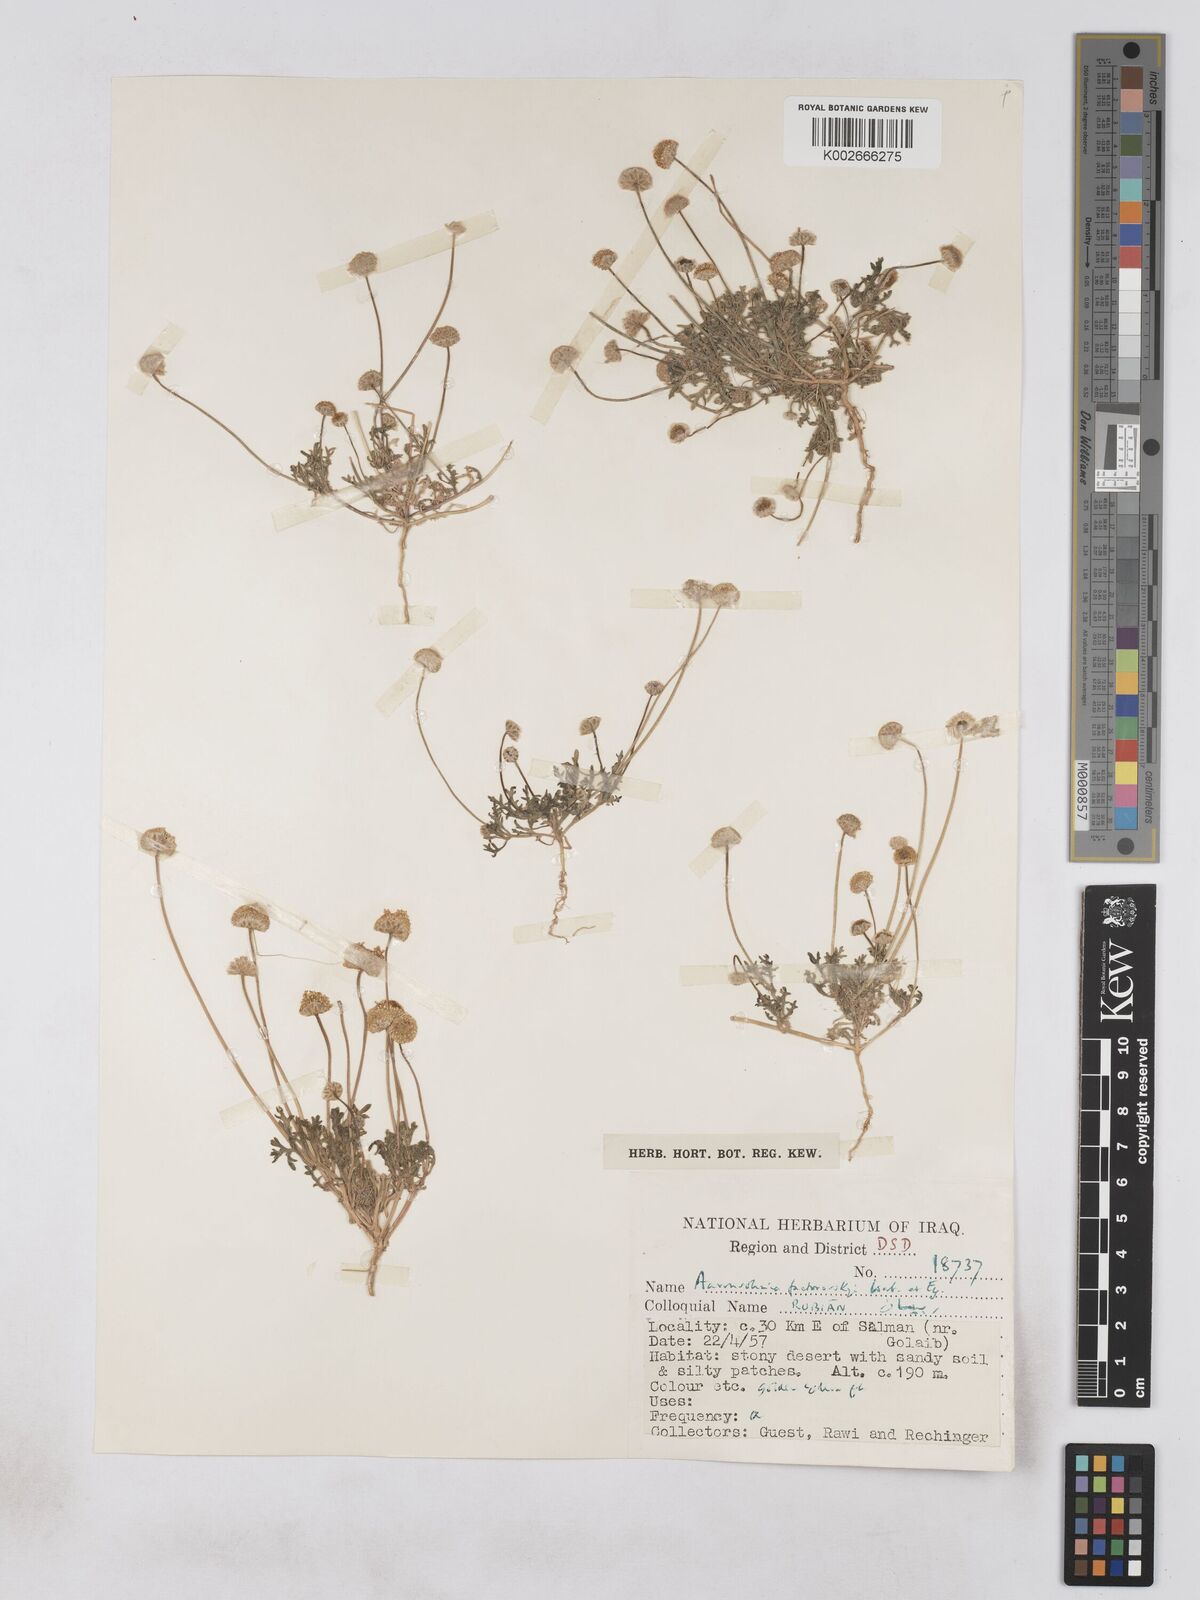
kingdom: Plantae
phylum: Tracheophyta
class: Magnoliopsida
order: Asterales
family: Asteraceae
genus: Otoglyphis
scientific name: Otoglyphis factorovskyi
